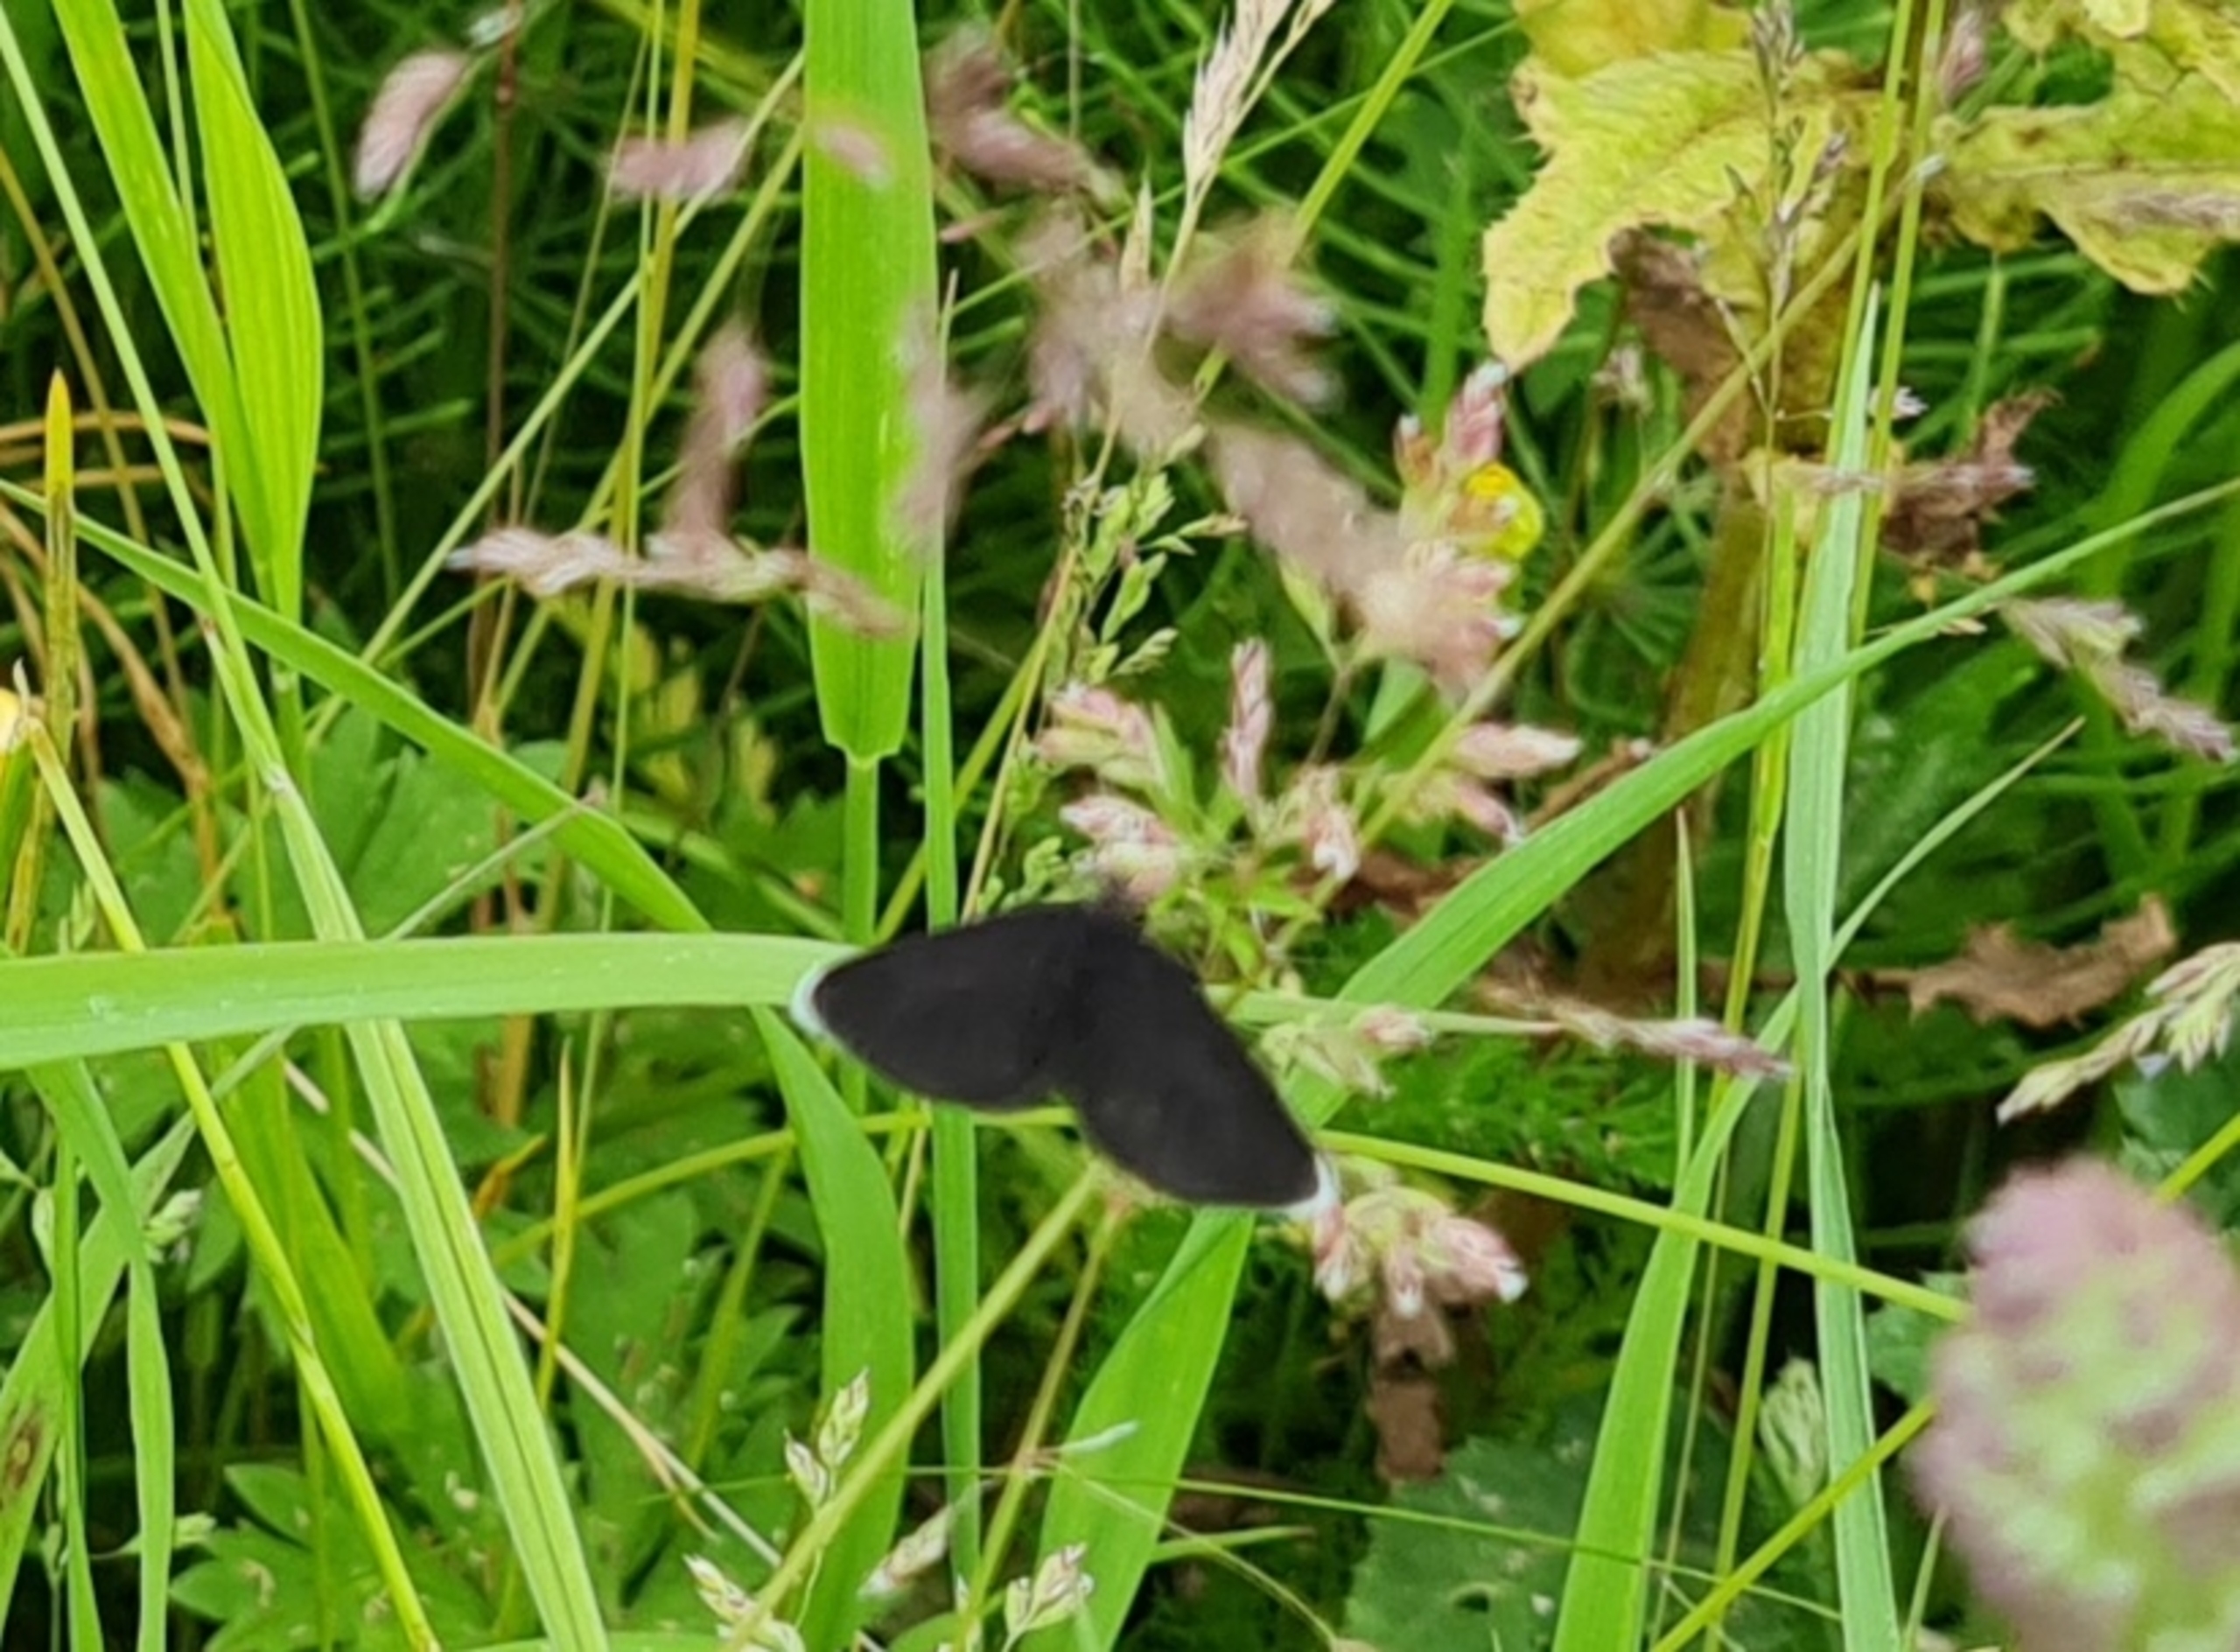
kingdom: Animalia
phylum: Arthropoda
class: Insecta
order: Lepidoptera
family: Geometridae
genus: Odezia
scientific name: Odezia atrata
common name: Sort måler
